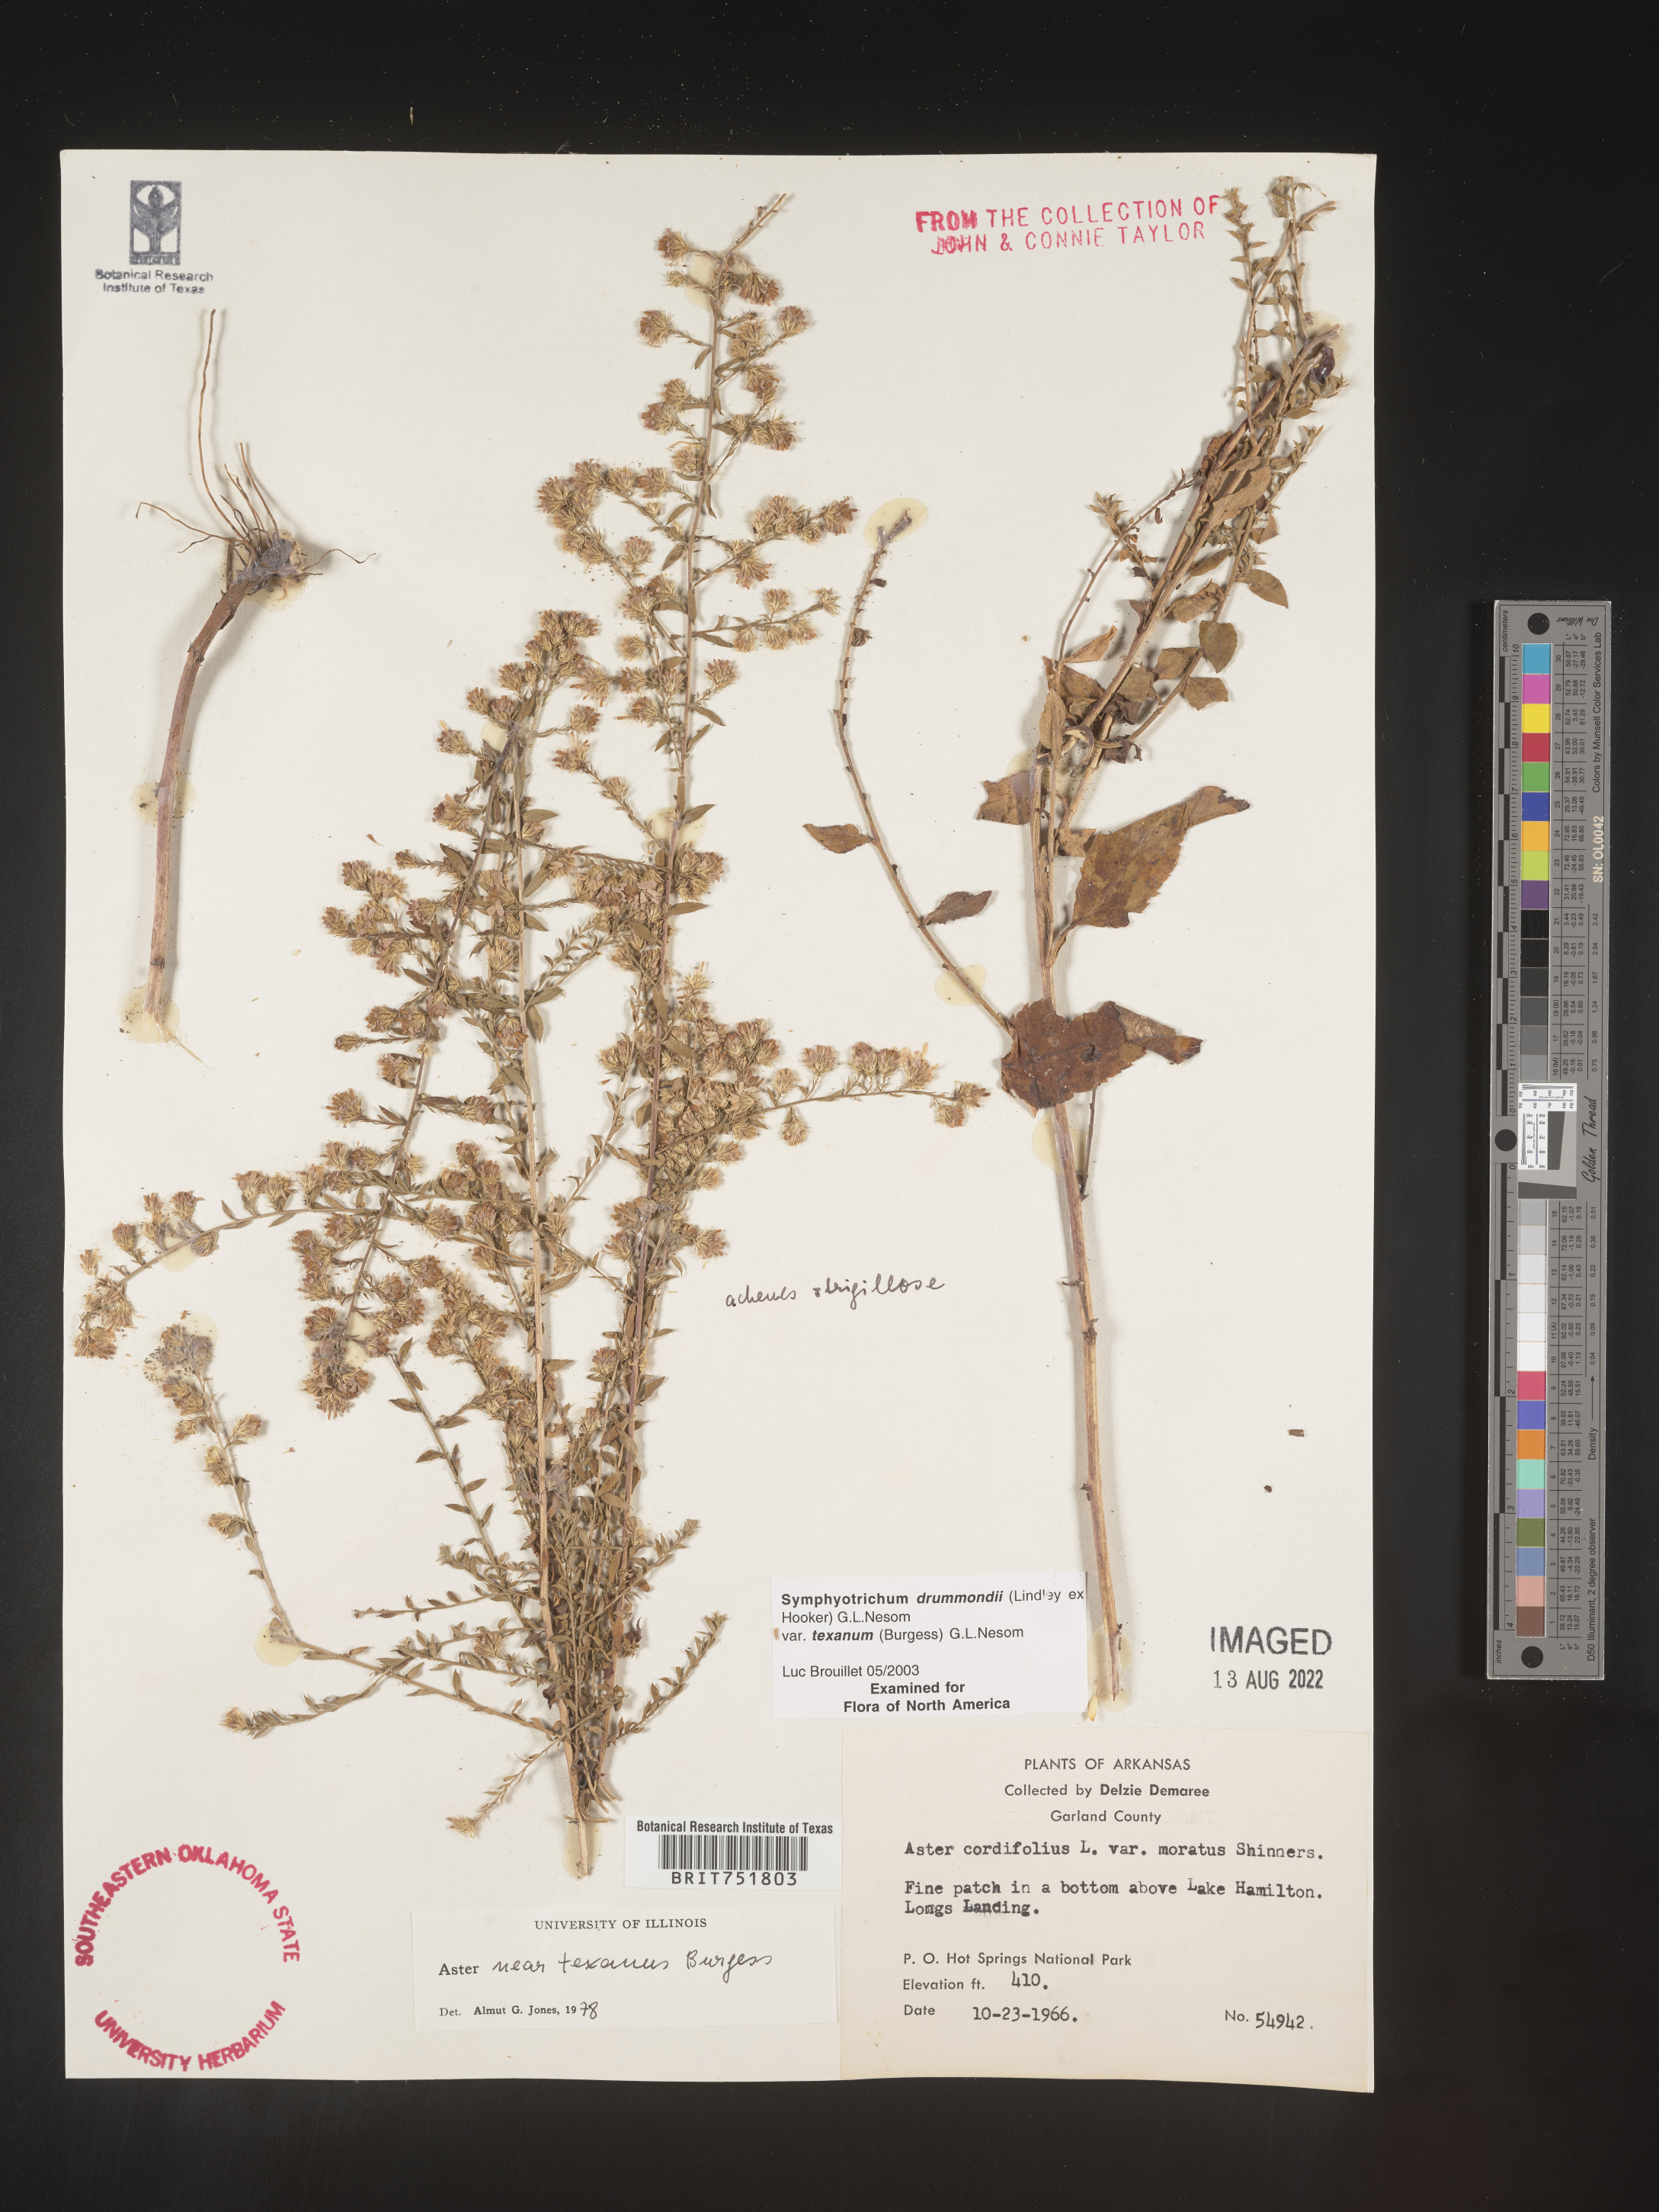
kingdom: Plantae
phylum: Tracheophyta
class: Magnoliopsida
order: Asterales
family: Asteraceae
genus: Symphyotrichum
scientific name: Symphyotrichum drummondii
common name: Drummond's aster
